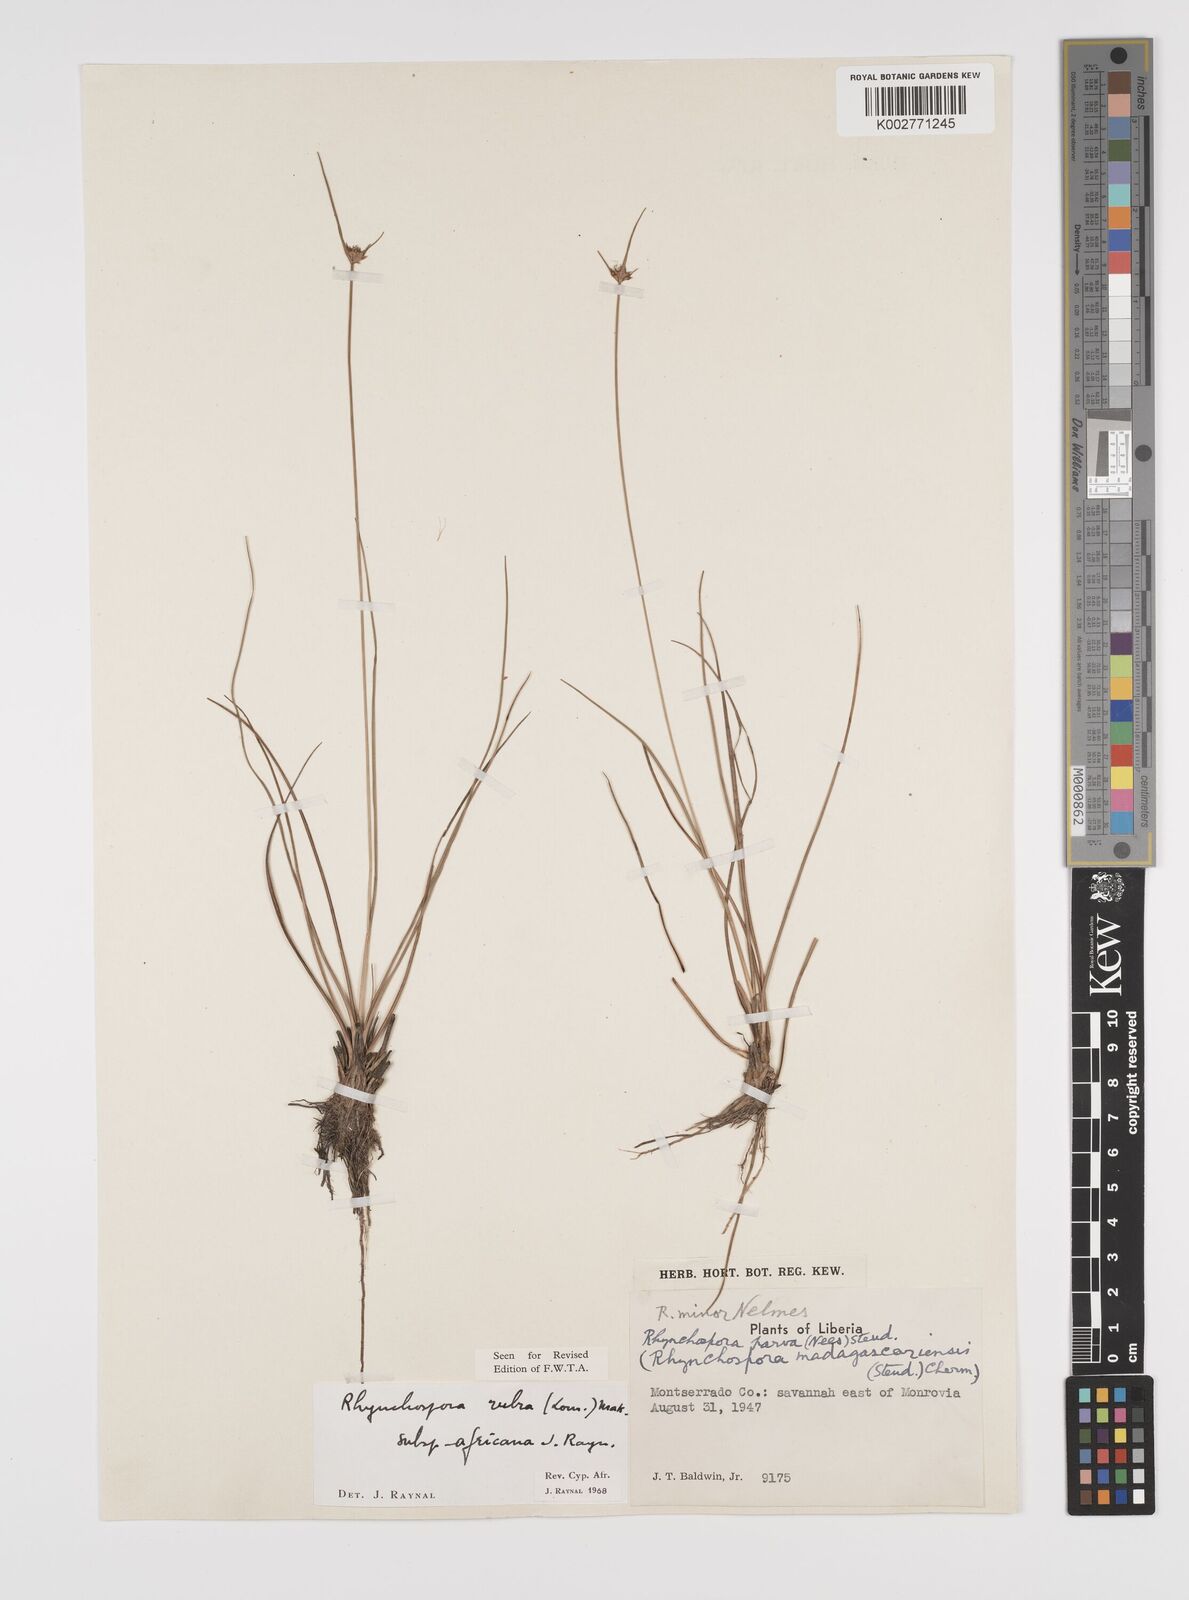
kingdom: Plantae
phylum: Tracheophyta
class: Liliopsida
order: Poales
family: Cyperaceae
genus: Rhynchospora
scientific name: Rhynchospora rubra
